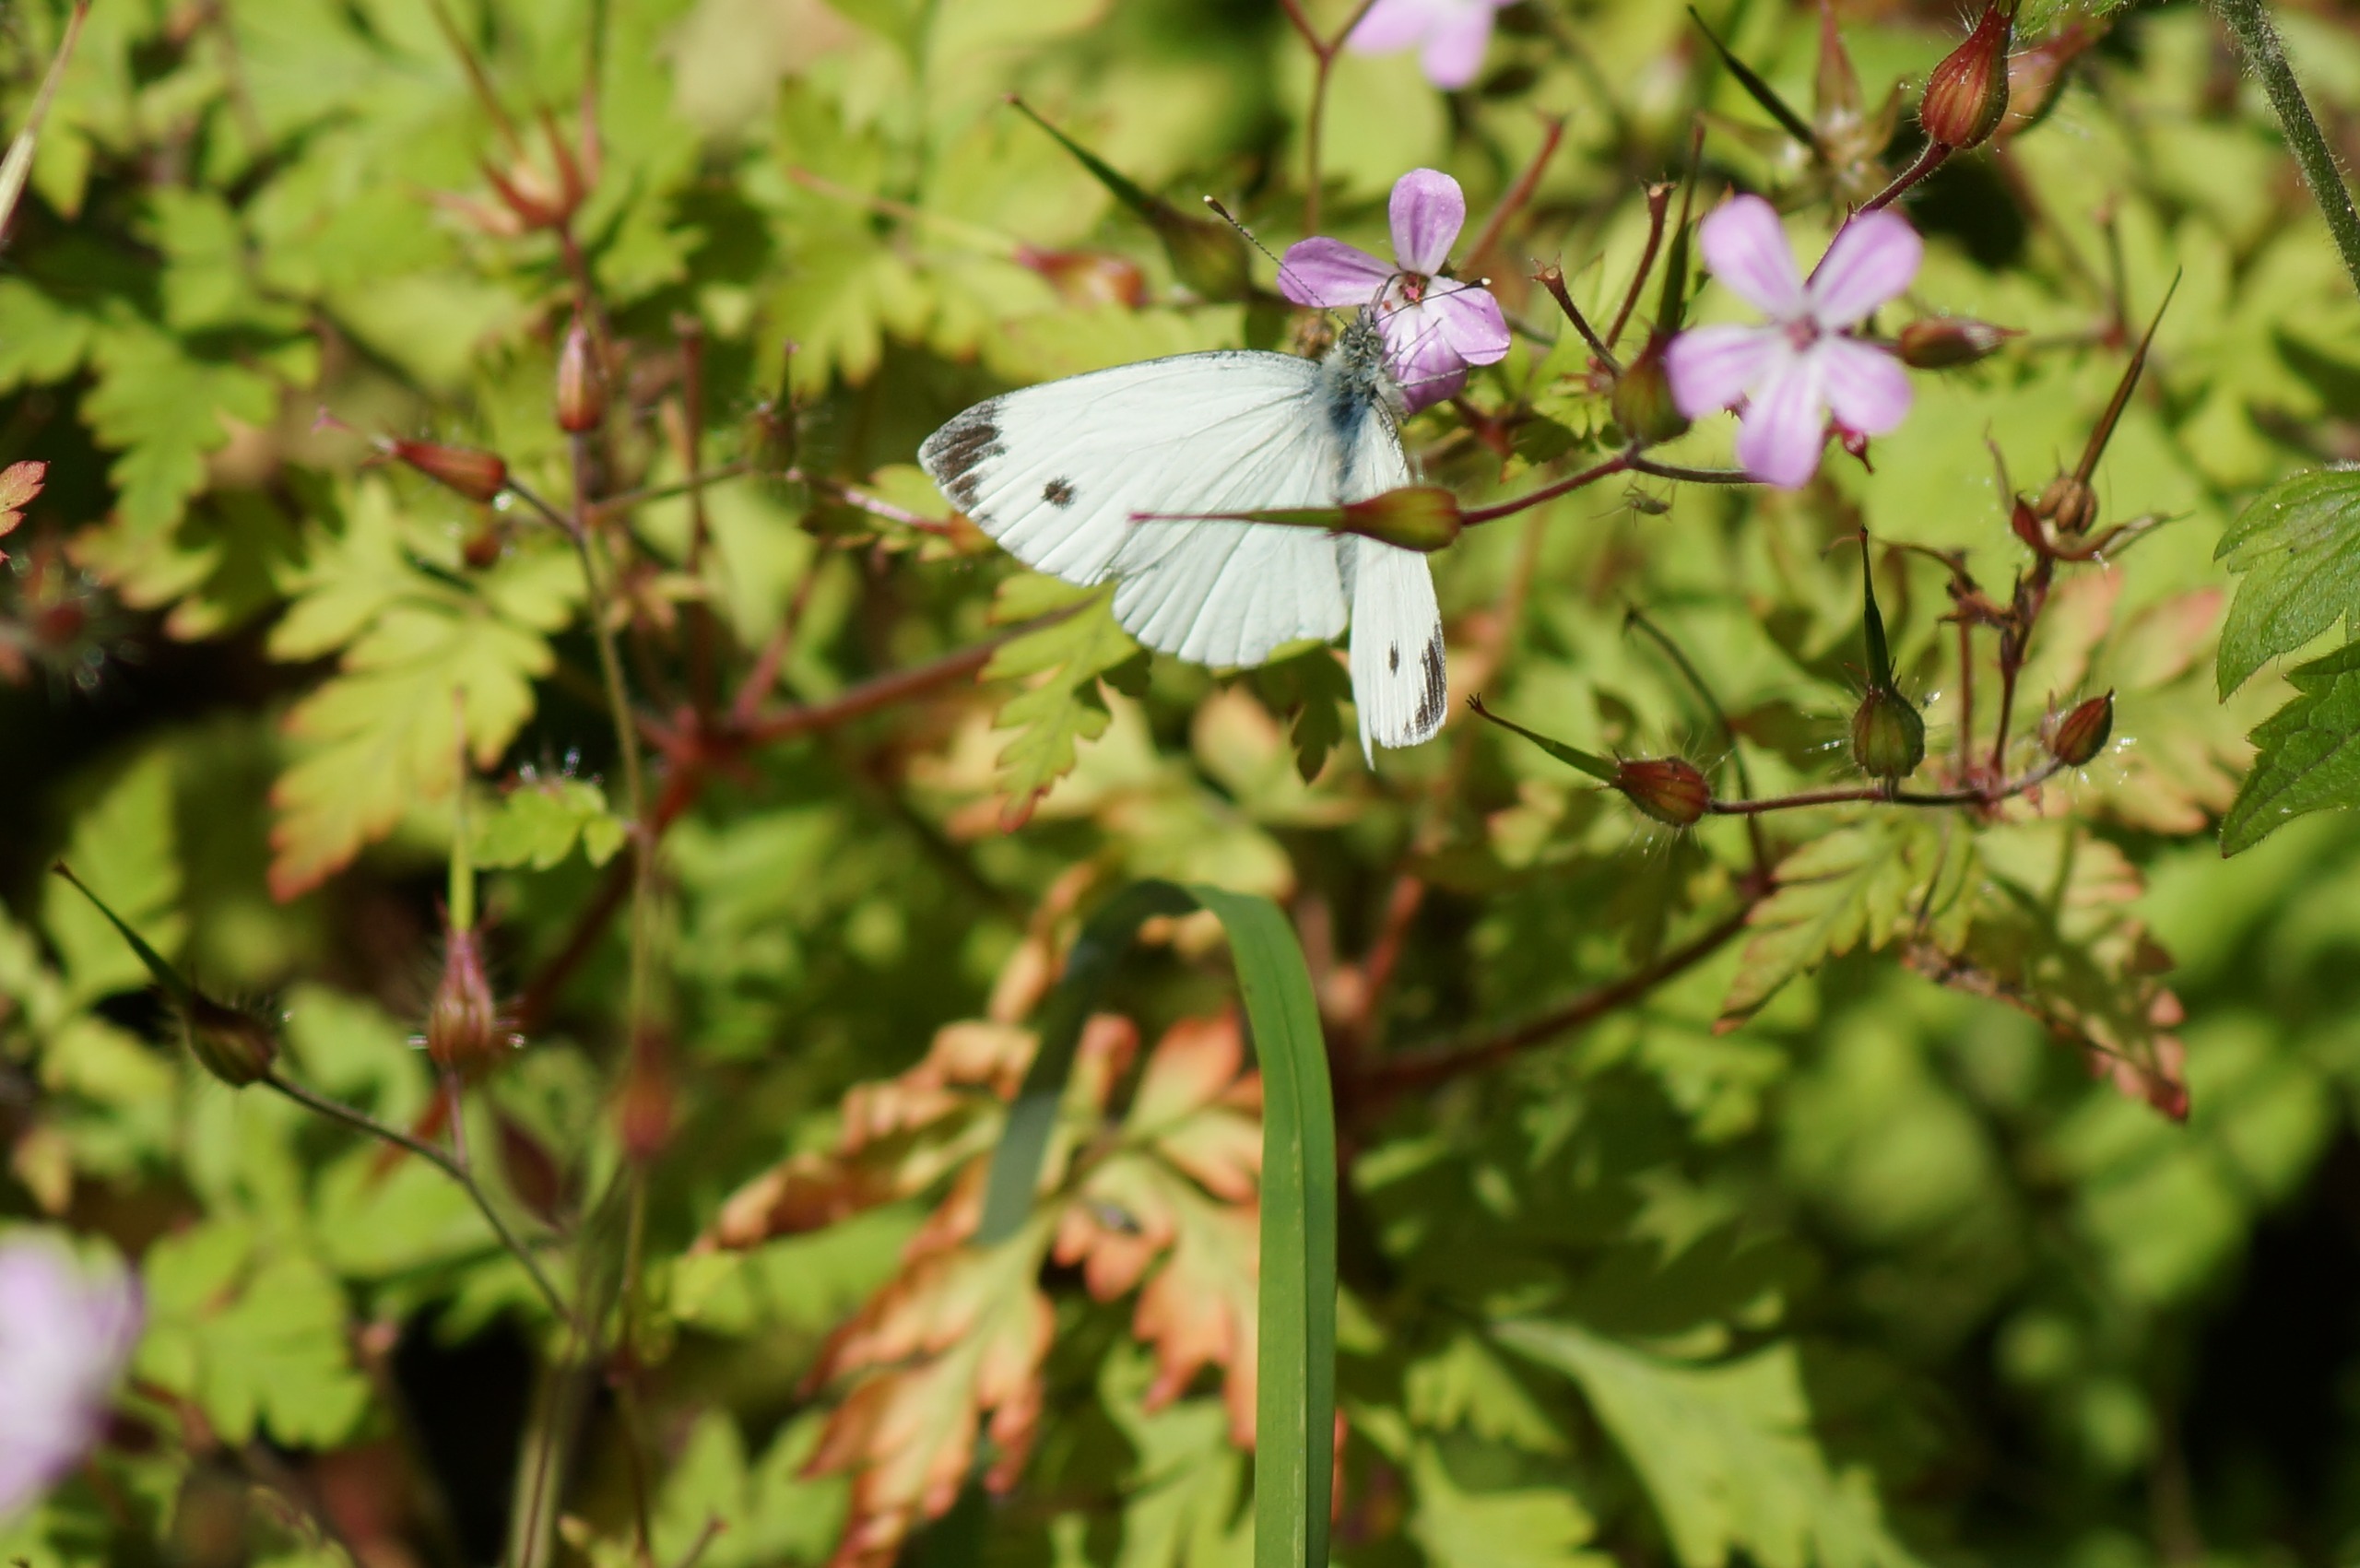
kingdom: Animalia
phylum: Arthropoda
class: Insecta
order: Lepidoptera
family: Pieridae
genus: Pieris
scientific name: Pieris napi
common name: Grønåret kålsommerfugl
